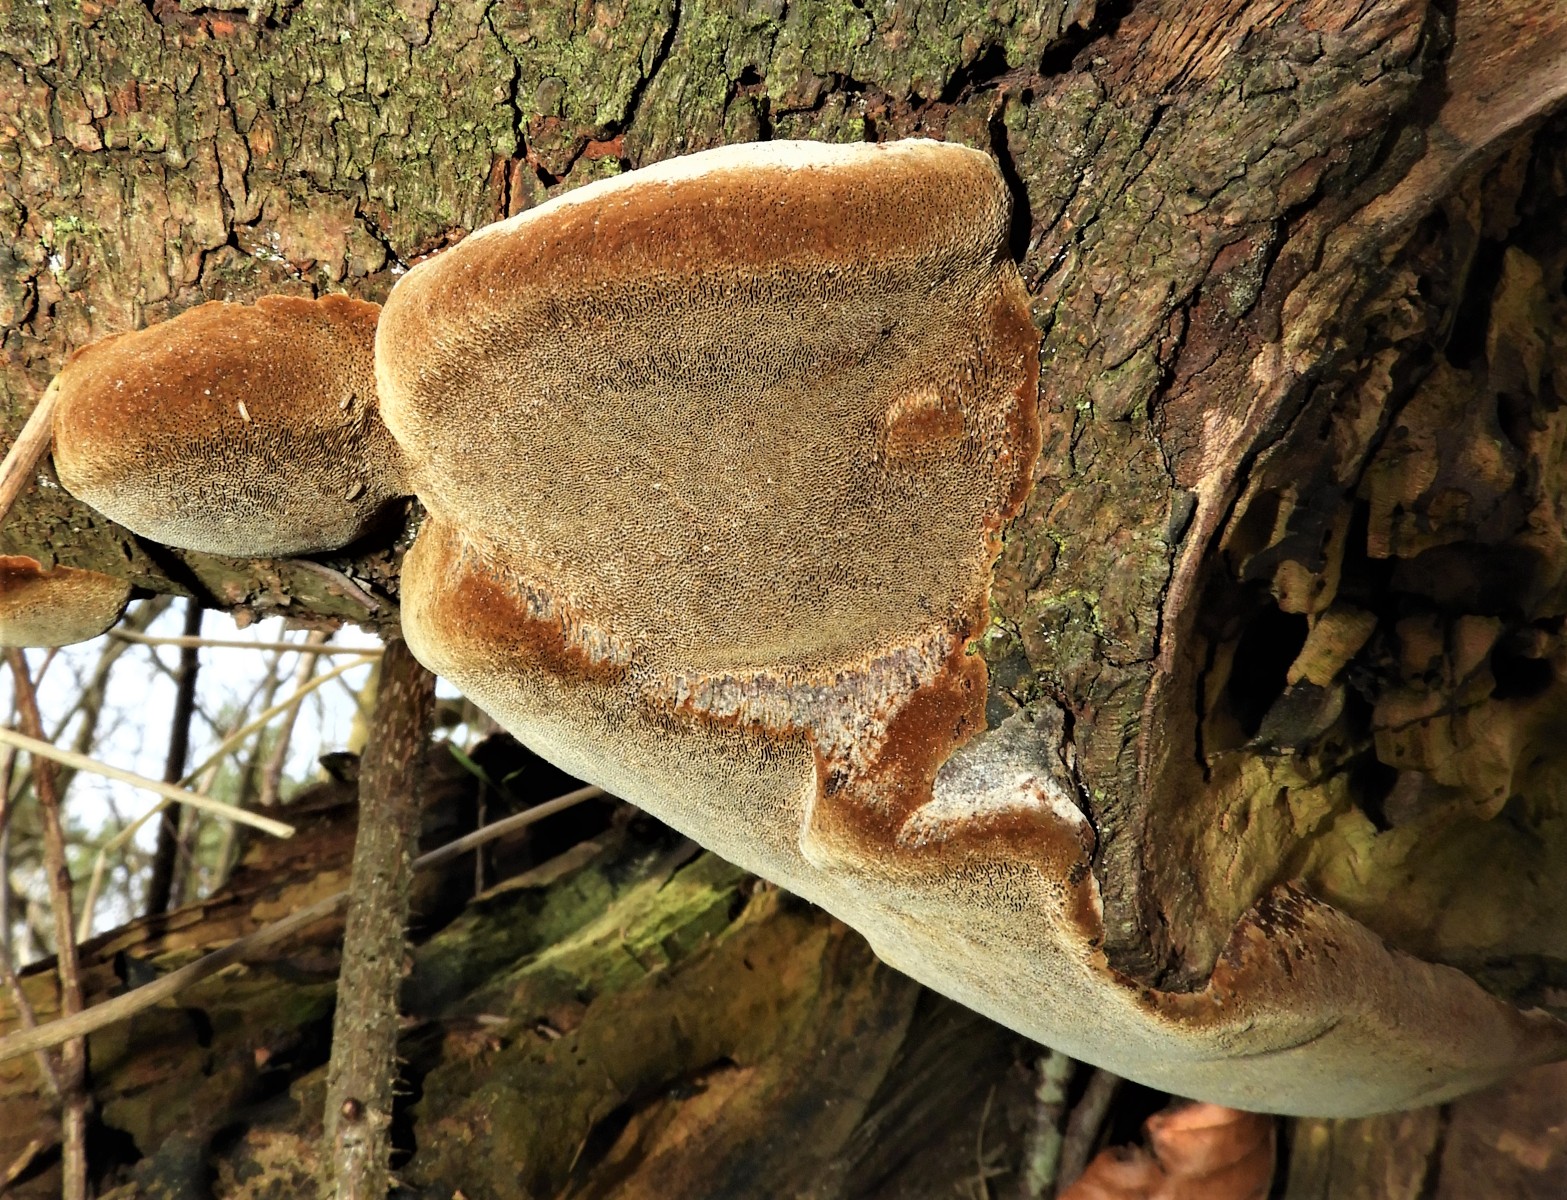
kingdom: Fungi
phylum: Basidiomycota
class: Agaricomycetes
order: Hymenochaetales
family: Hymenochaetaceae
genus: Phellinus
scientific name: Phellinus pomaceus
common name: blomme-ildporesvamp
